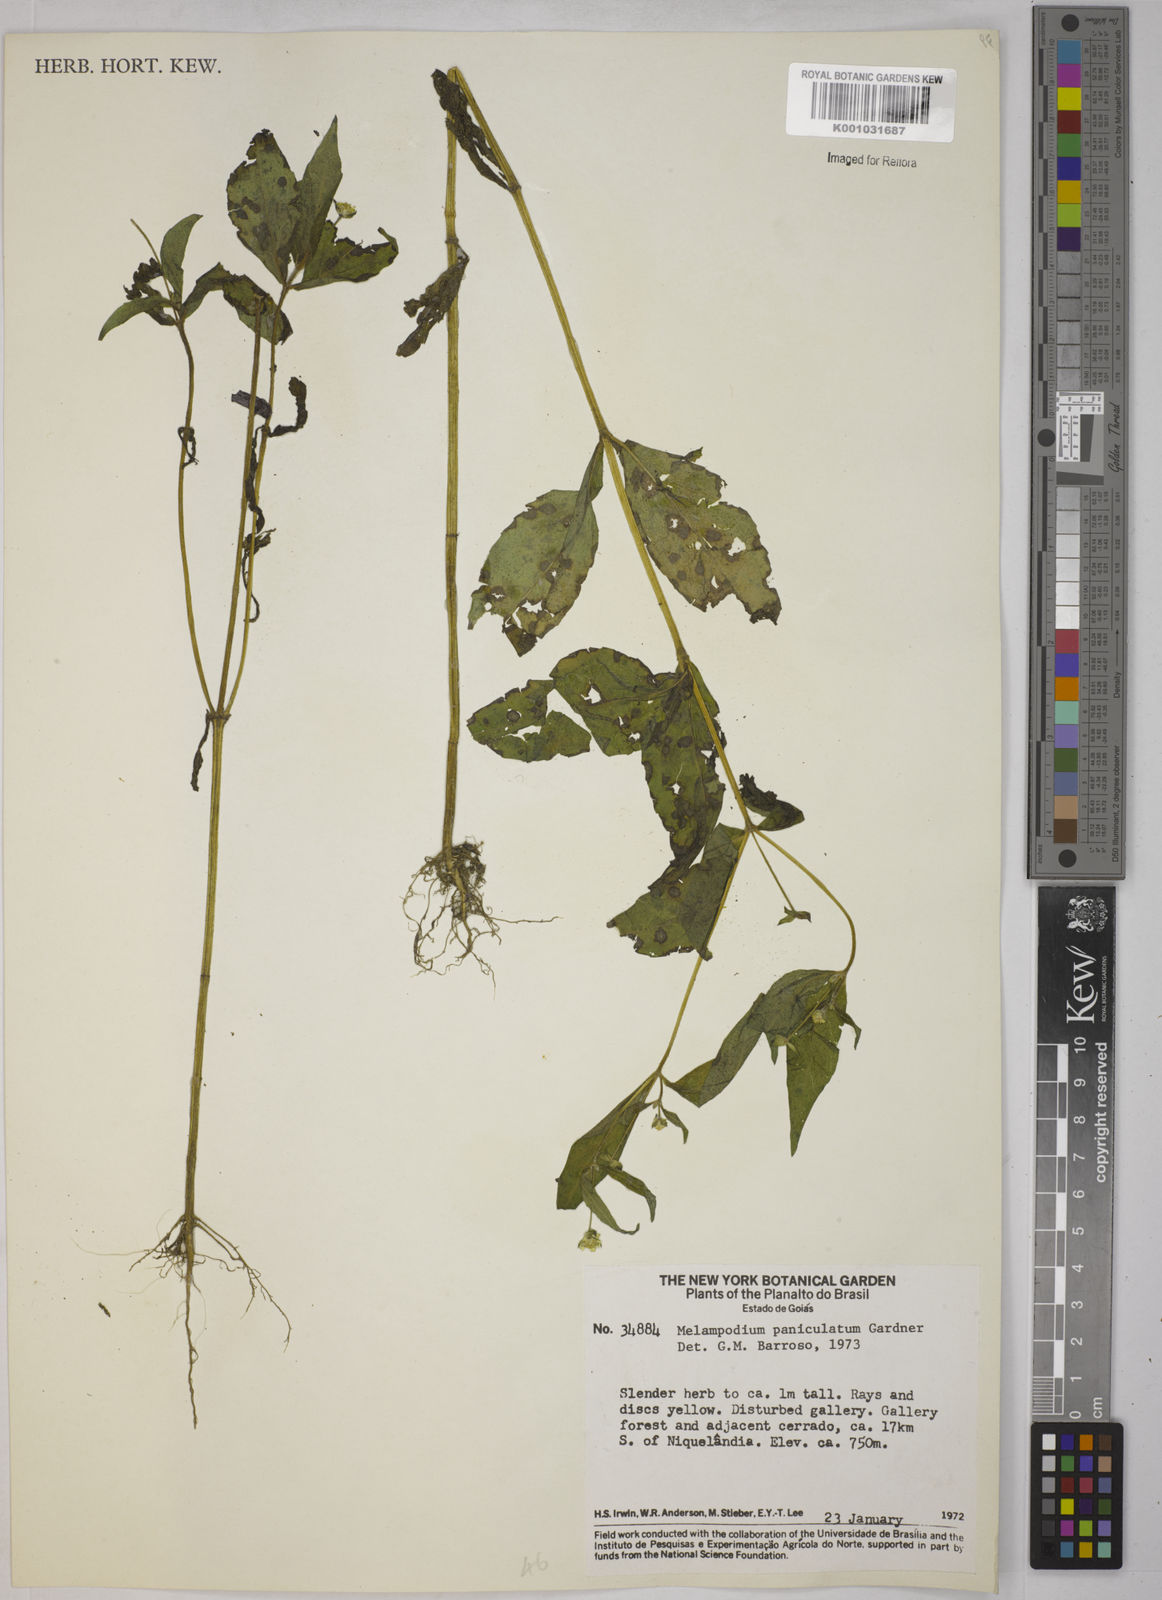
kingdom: Plantae
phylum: Tracheophyta
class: Magnoliopsida
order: Asterales
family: Asteraceae
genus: Melampodium
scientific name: Melampodium paniculatum
